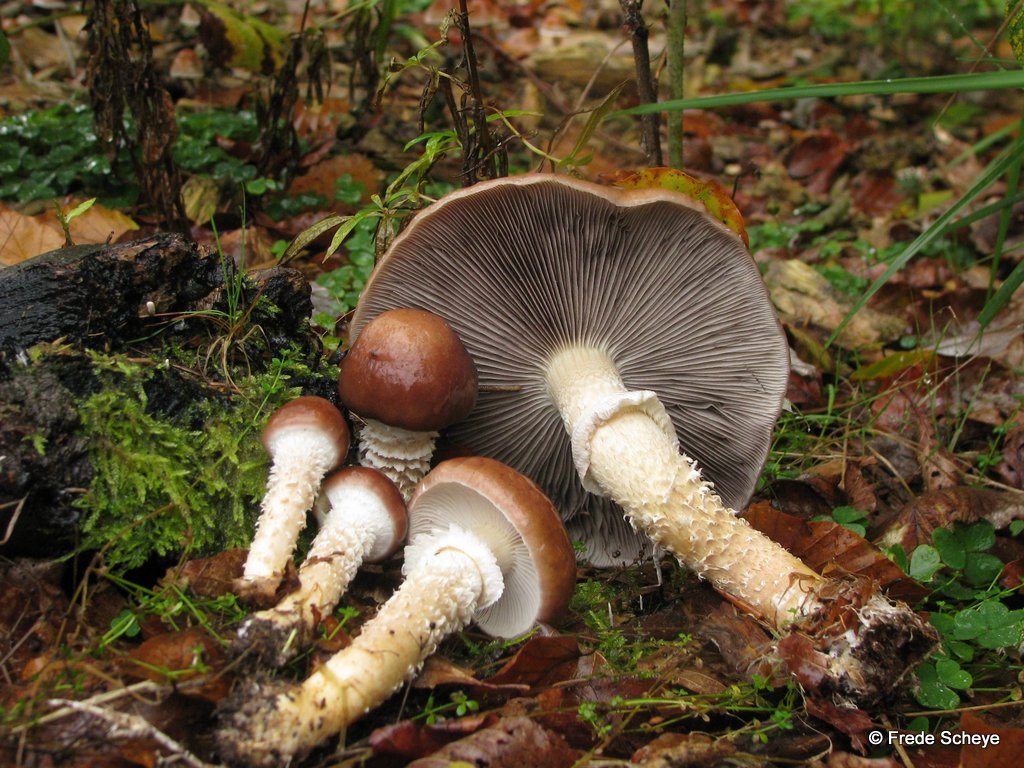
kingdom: Fungi
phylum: Basidiomycota
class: Agaricomycetes
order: Agaricales
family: Strophariaceae
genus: Stropharia
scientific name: Stropharia hornemannii
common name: nordisk bredblad
